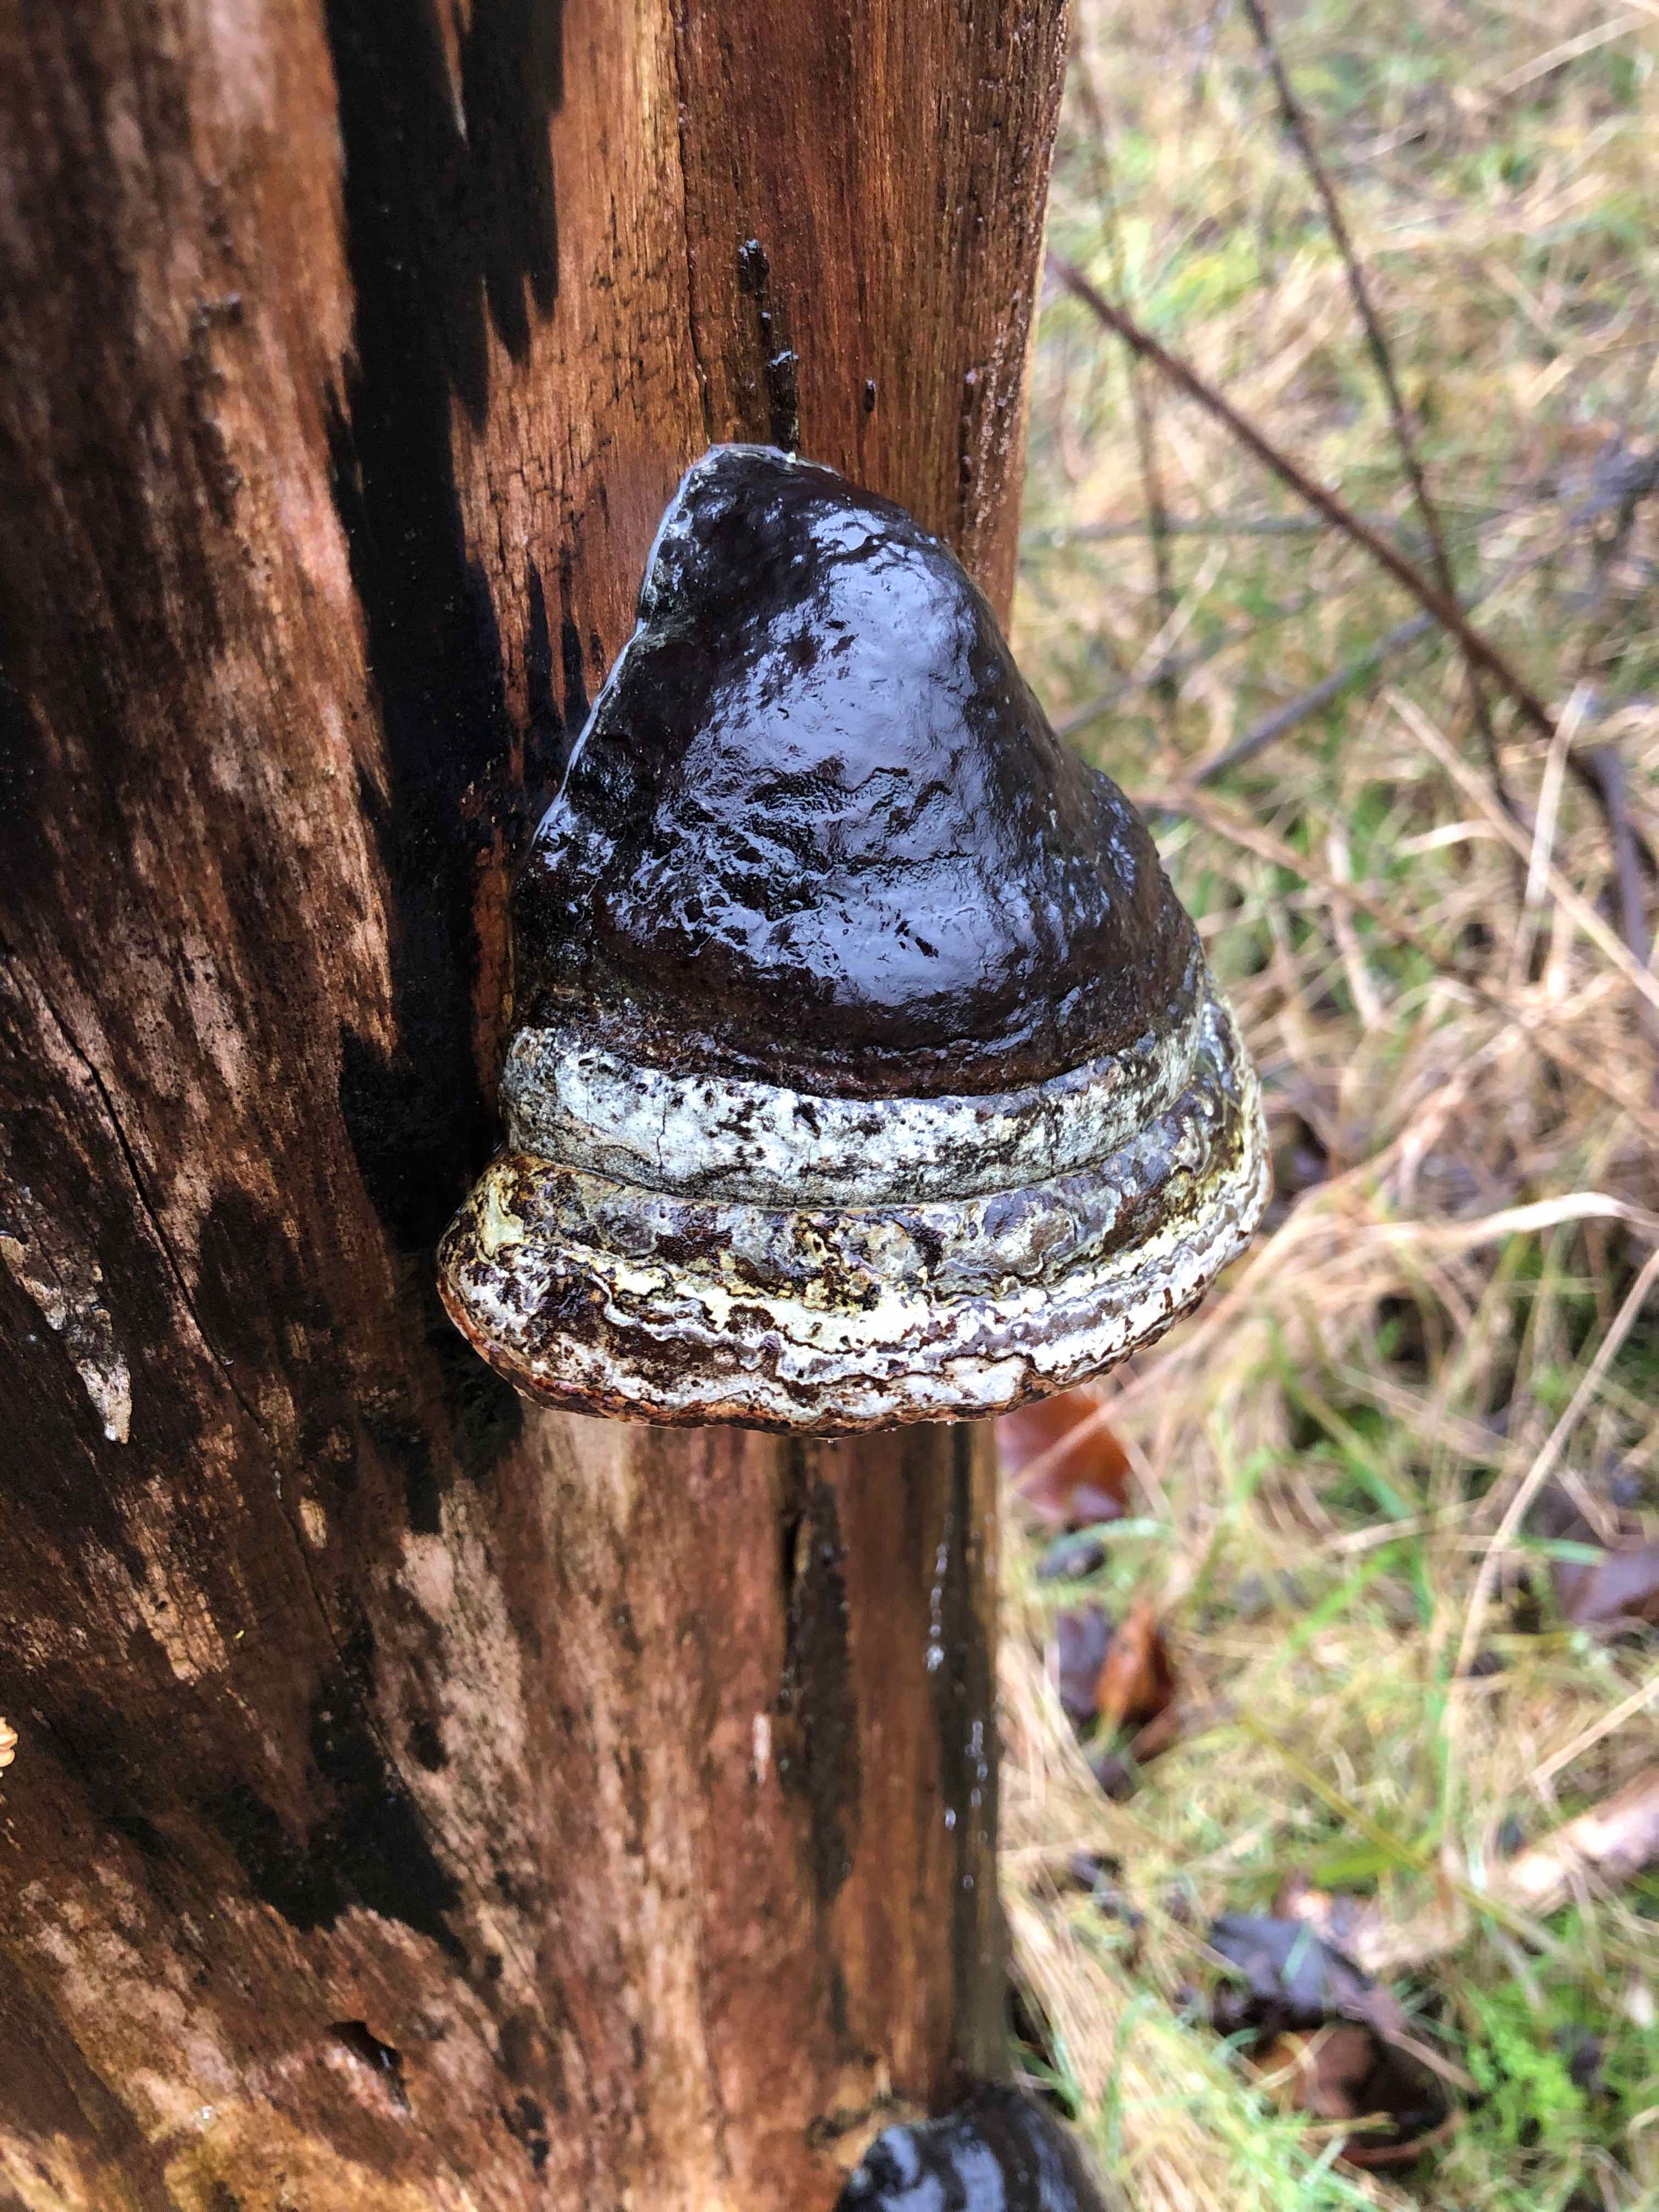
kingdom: Fungi
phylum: Basidiomycota
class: Agaricomycetes
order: Polyporales
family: Polyporaceae
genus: Fomes
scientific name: Fomes fomentarius
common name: tøndersvamp
